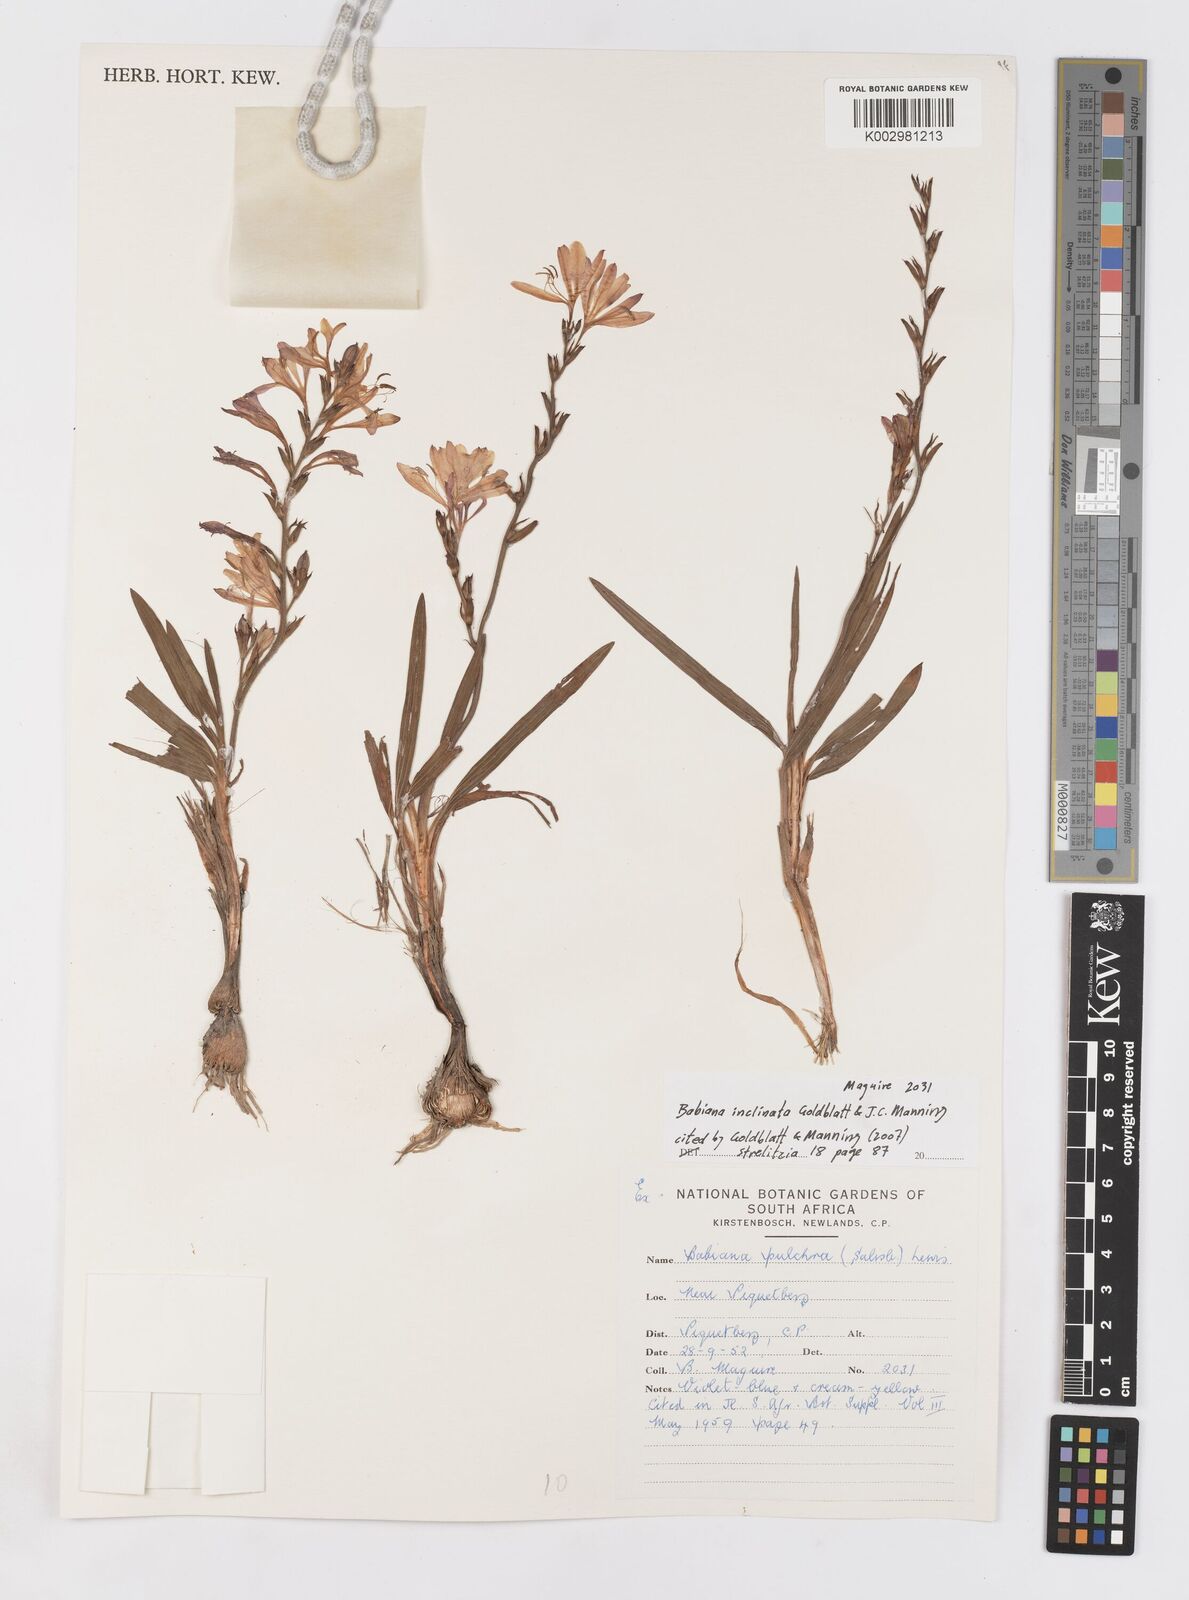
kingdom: Plantae
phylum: Tracheophyta
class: Liliopsida
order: Asparagales
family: Iridaceae
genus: Babiana
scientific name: Babiana inclinata
